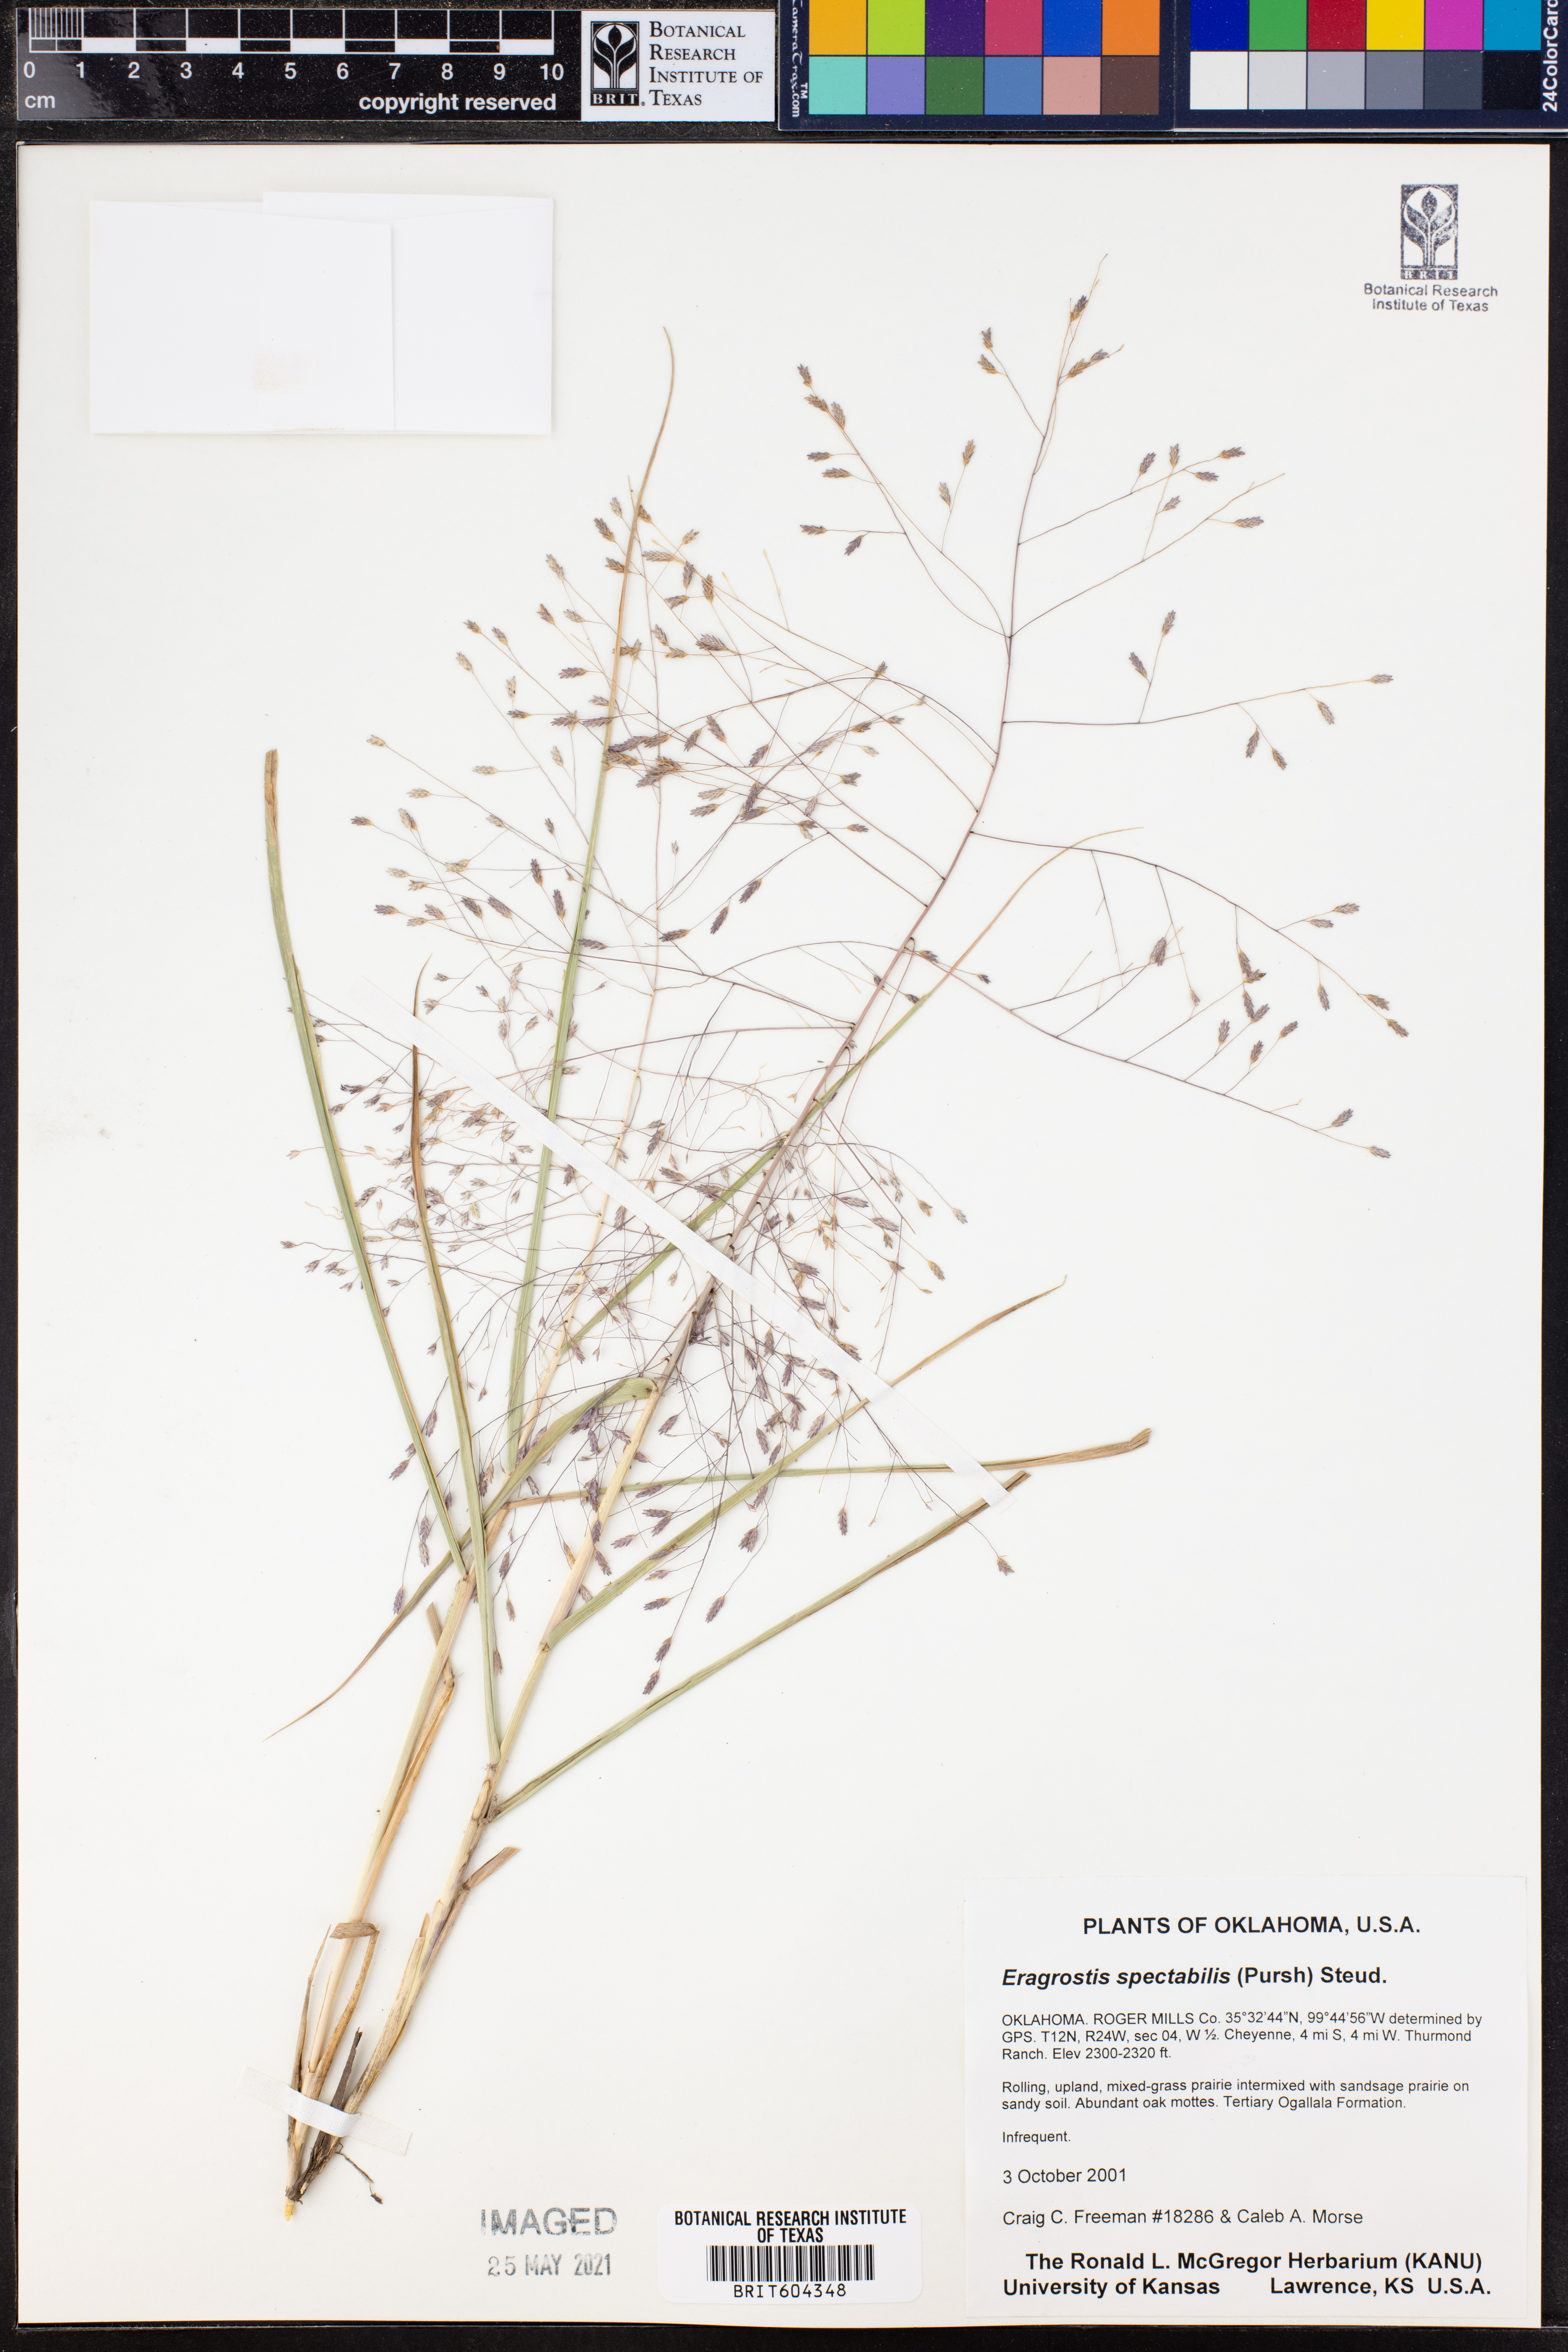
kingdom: Plantae
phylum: Tracheophyta
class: Liliopsida
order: Poales
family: Poaceae
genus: Eragrostis
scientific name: Eragrostis spectabilis
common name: Petticoat-climber
